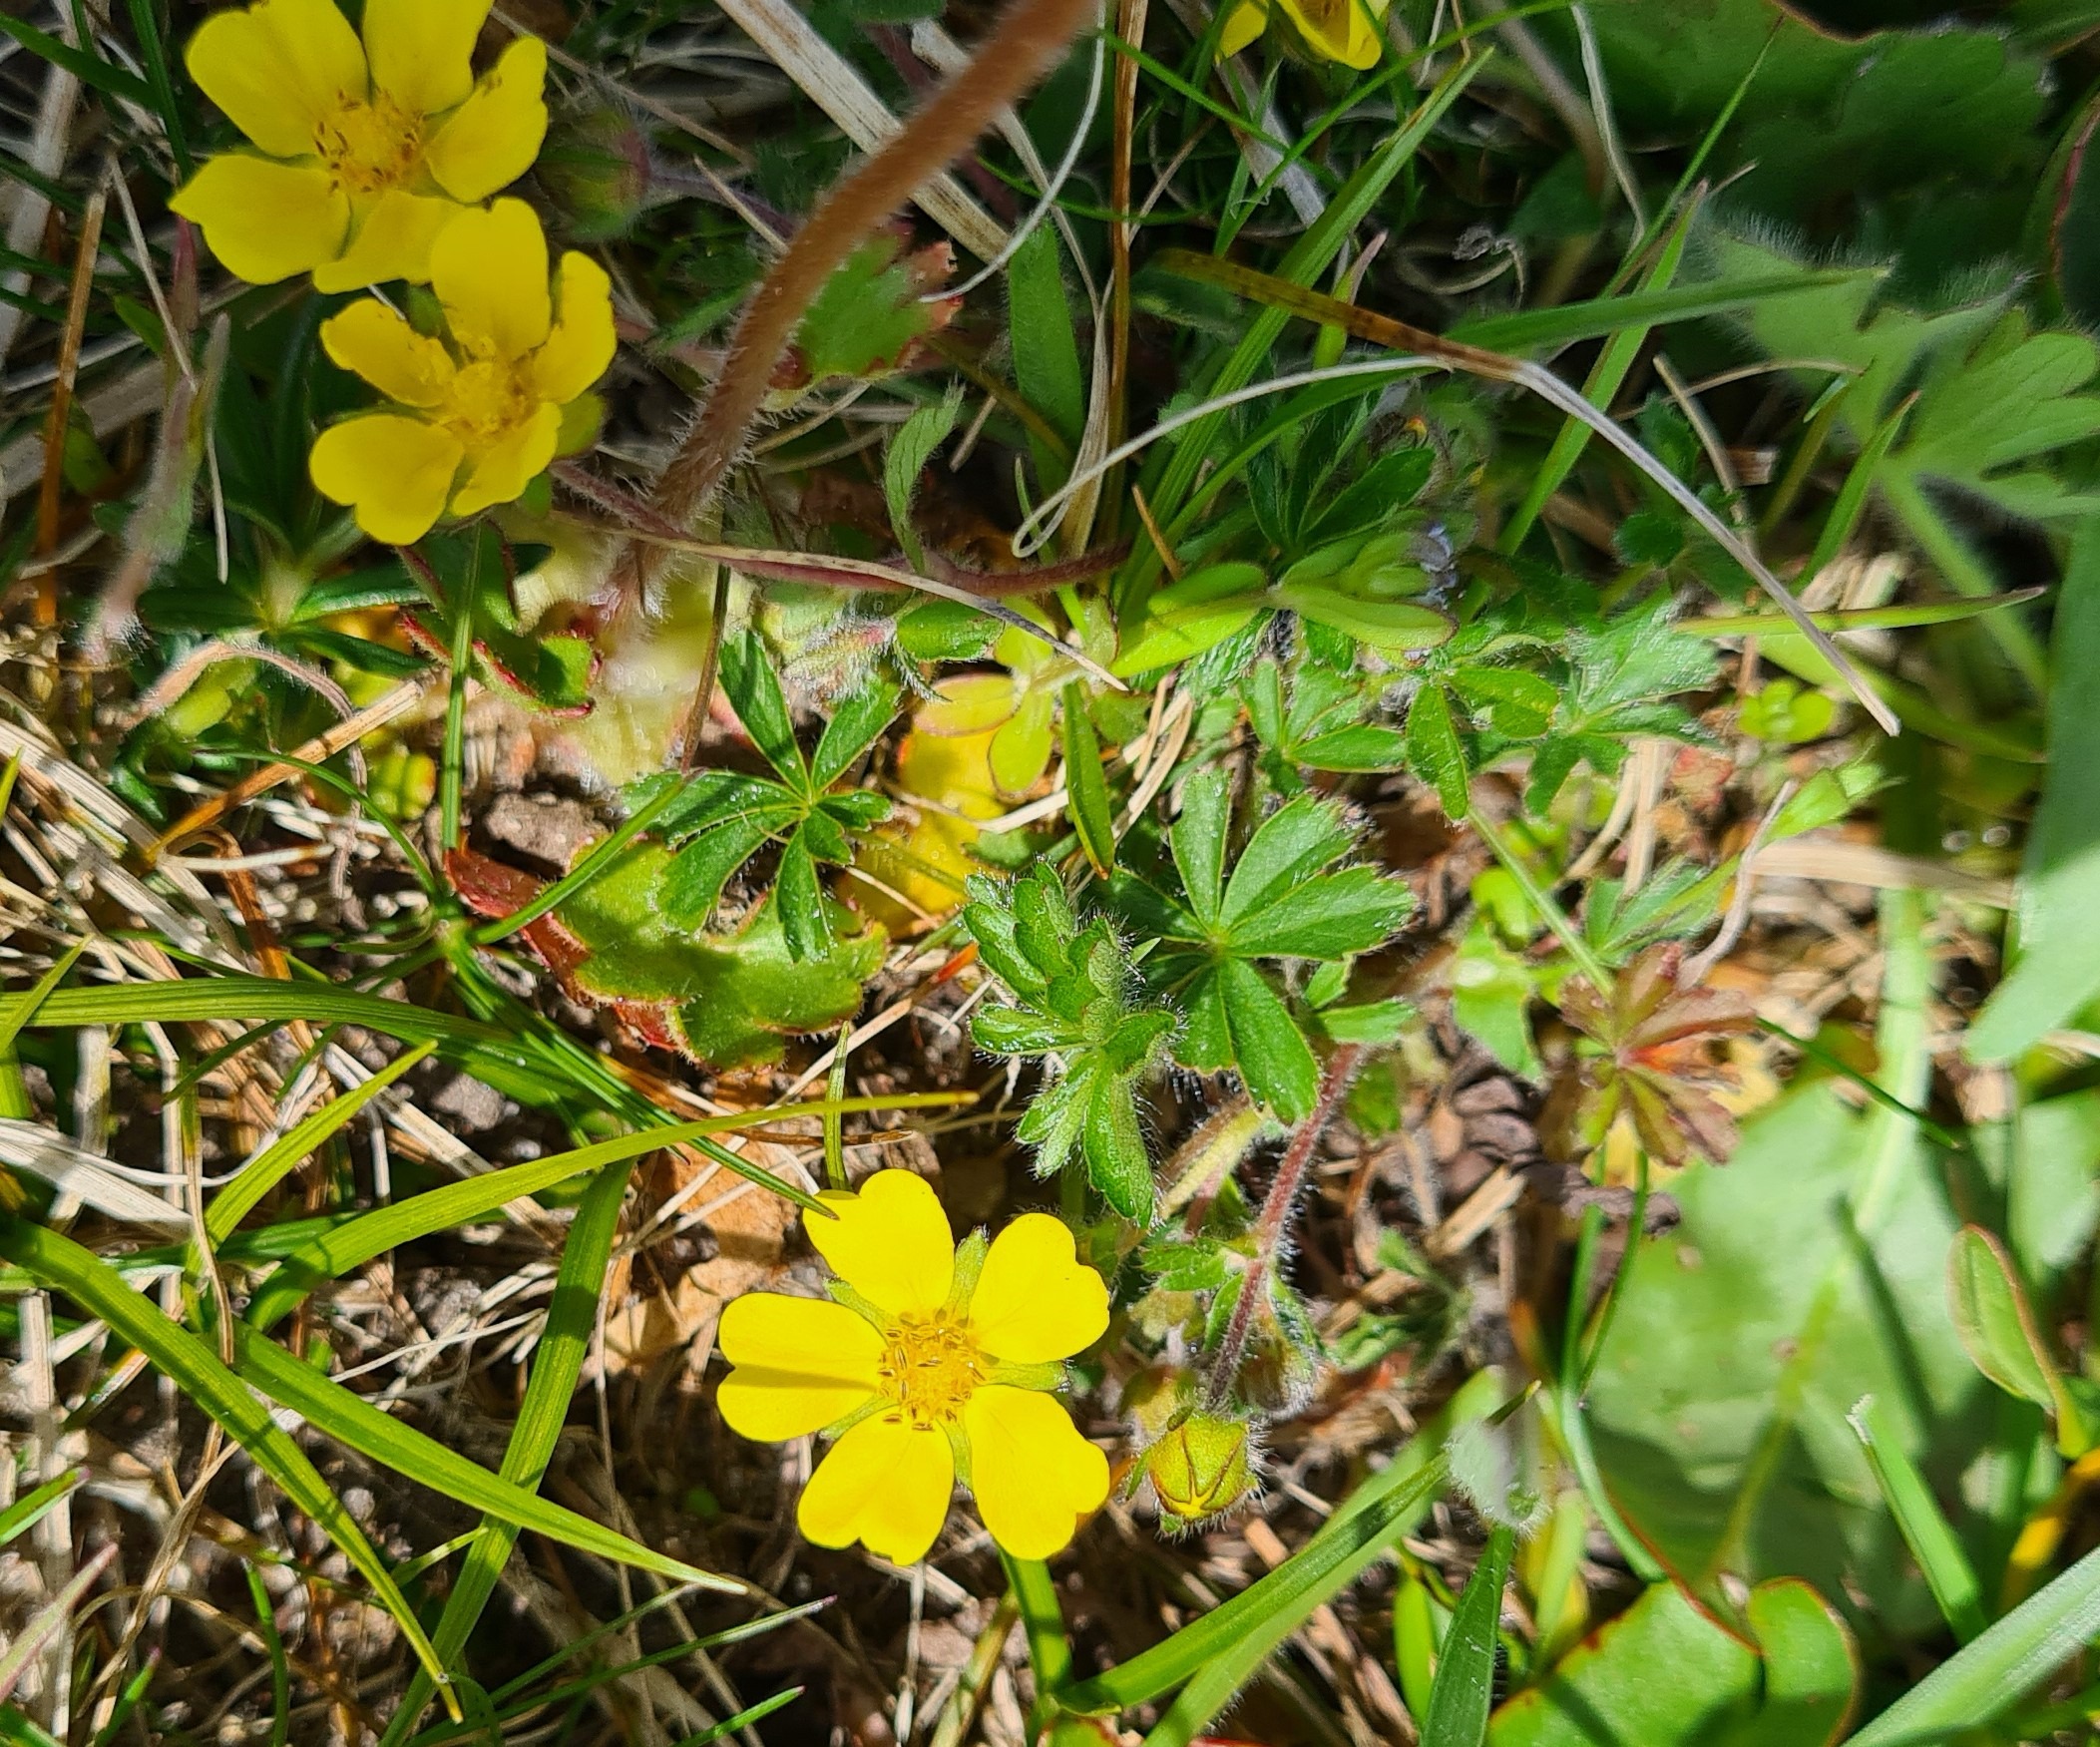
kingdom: Plantae
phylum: Tracheophyta
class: Magnoliopsida
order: Rosales
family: Rosaceae
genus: Potentilla
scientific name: Potentilla heptaphylla
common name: Mat potentil
